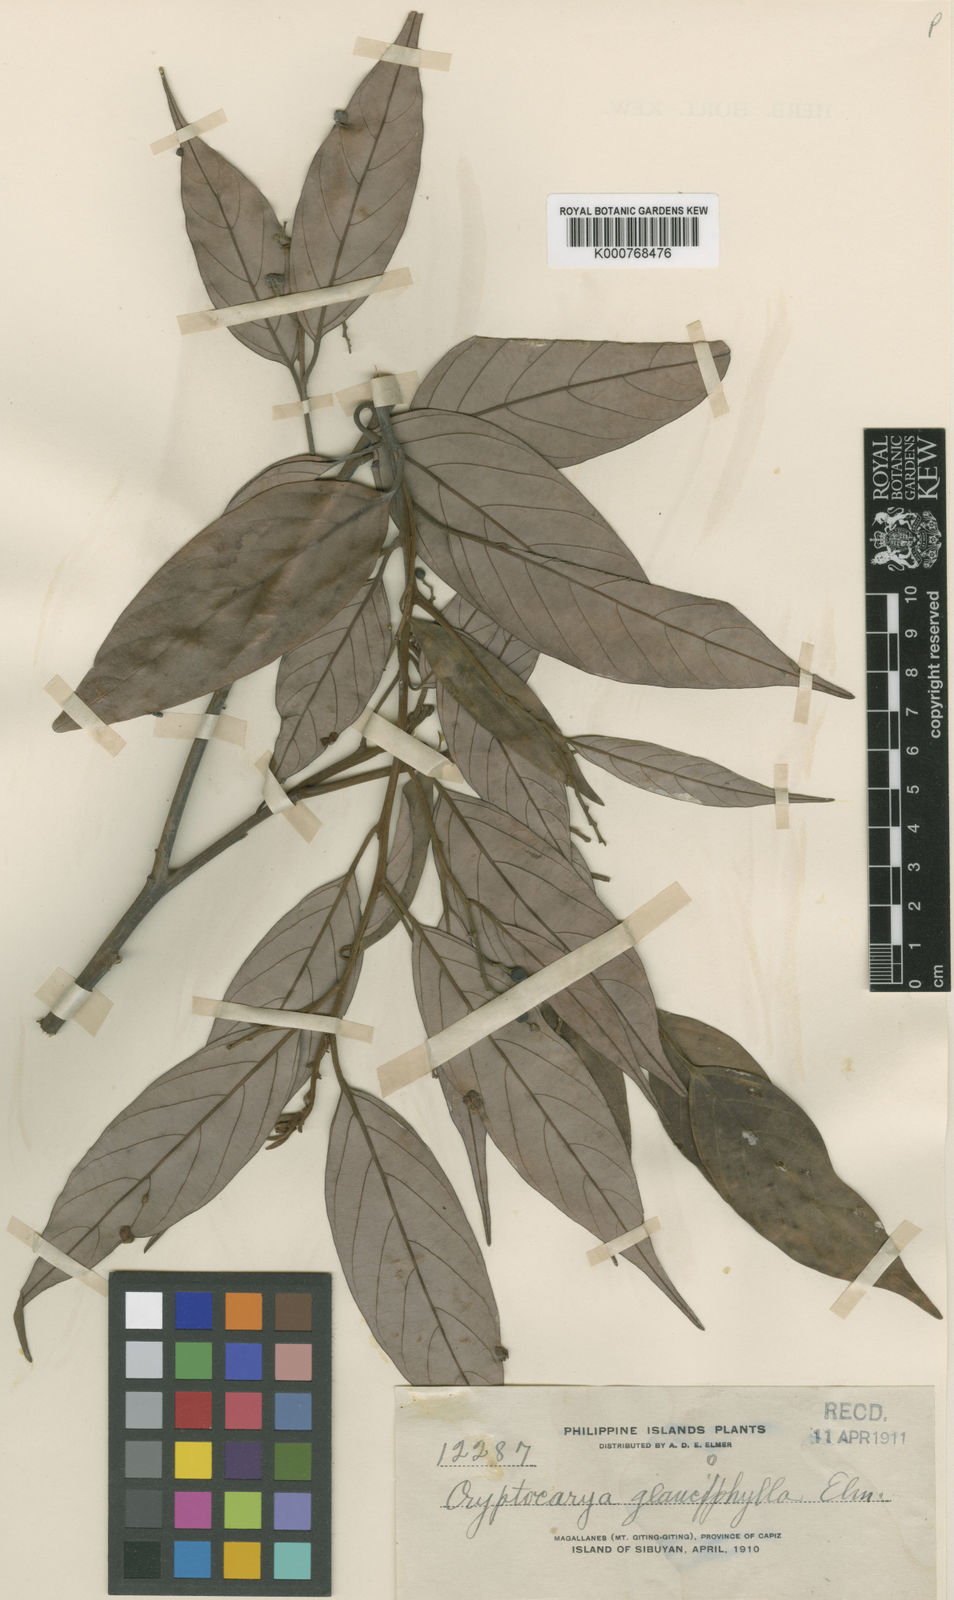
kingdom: Plantae
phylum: Tracheophyta
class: Magnoliopsida
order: Laurales
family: Lauraceae
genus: Cryptocarya
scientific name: Cryptocarya ferrea
